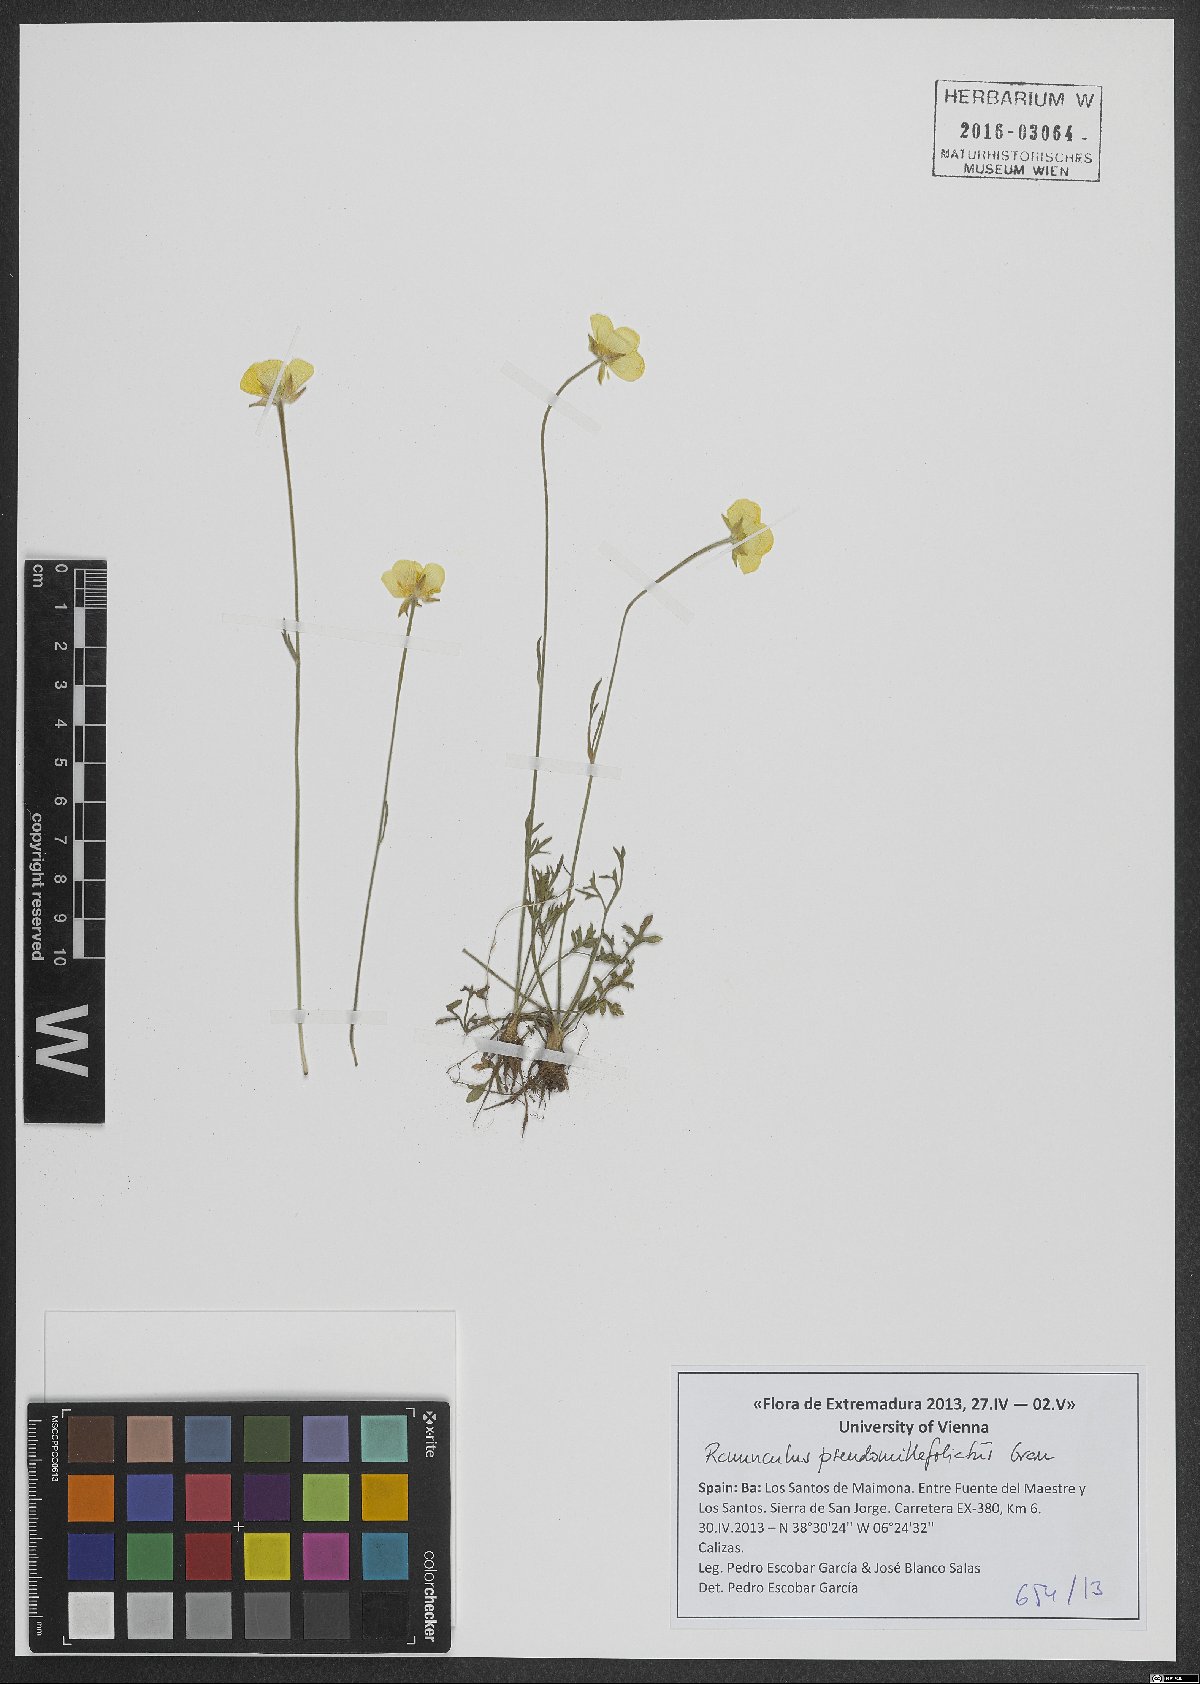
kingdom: Plantae
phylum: Tracheophyta
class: Magnoliopsida
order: Ranunculales
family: Ranunculaceae
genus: Ranunculus
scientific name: Ranunculus pseudomillefoliatus
